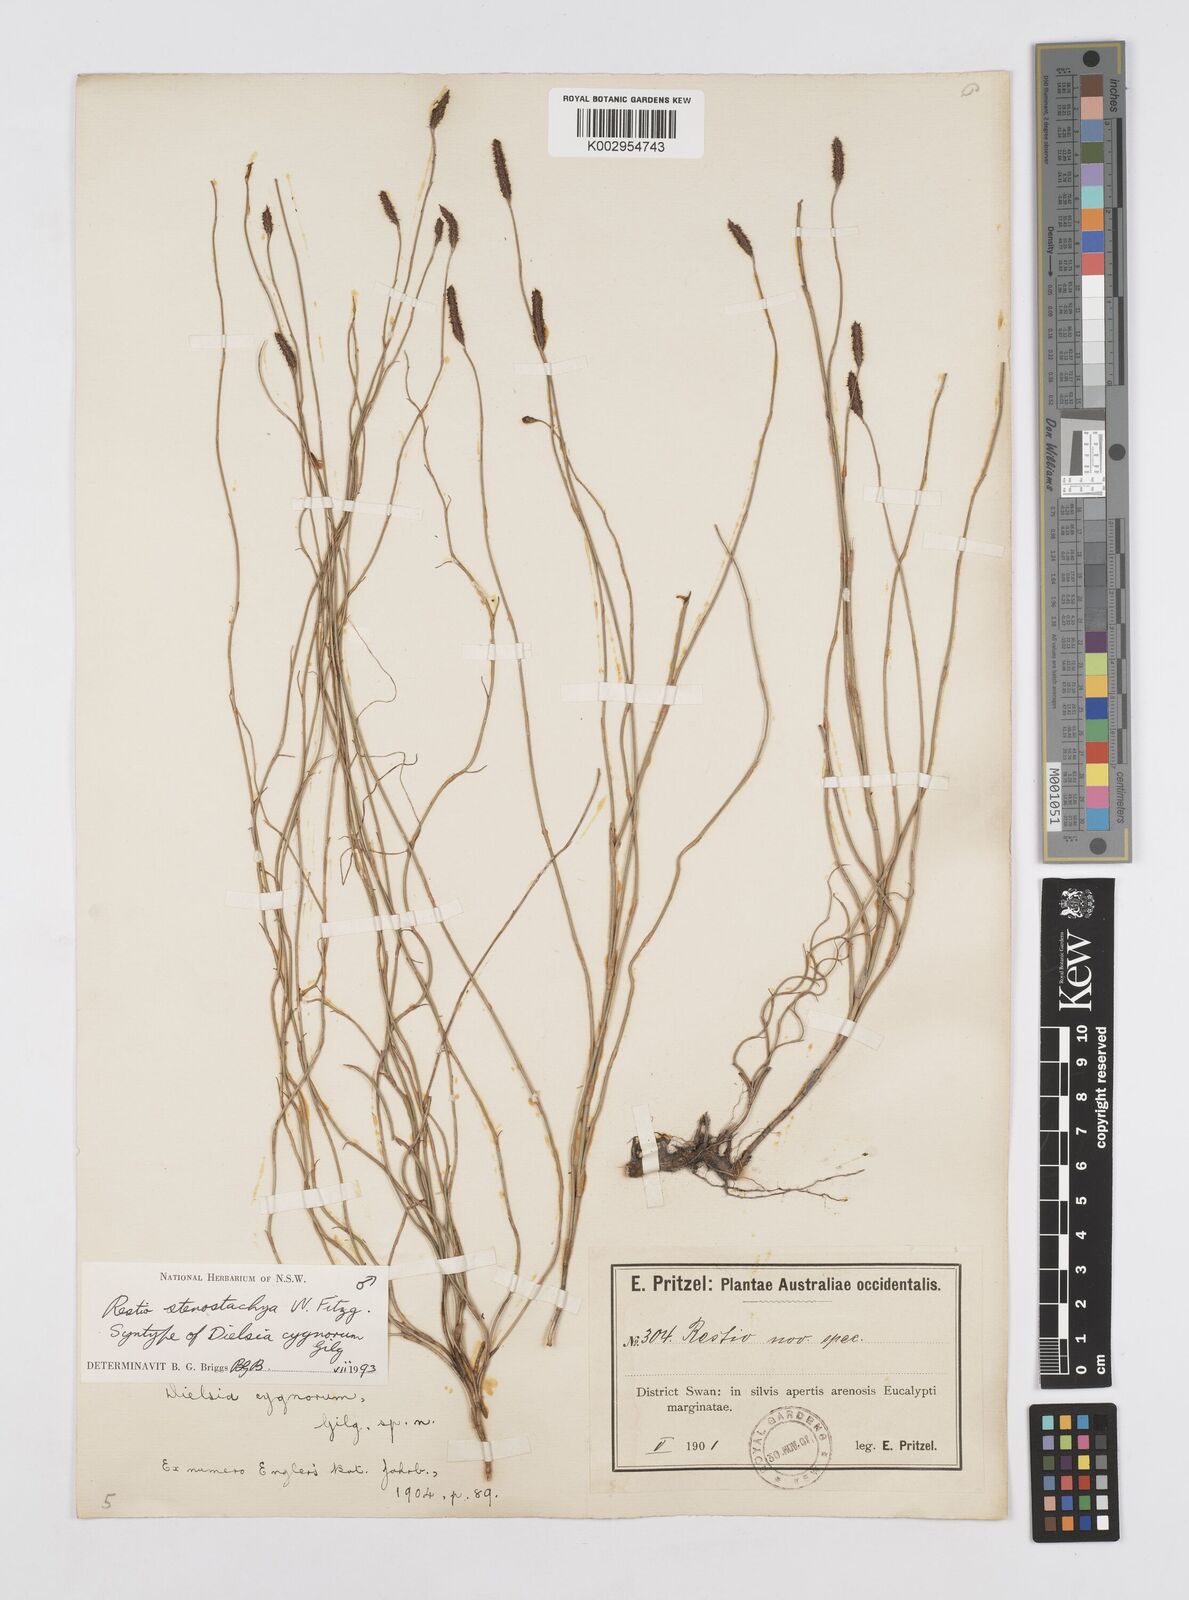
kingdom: Plantae
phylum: Tracheophyta
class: Liliopsida
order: Poales
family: Restionaceae
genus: Dielsia
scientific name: Dielsia stenostachya
